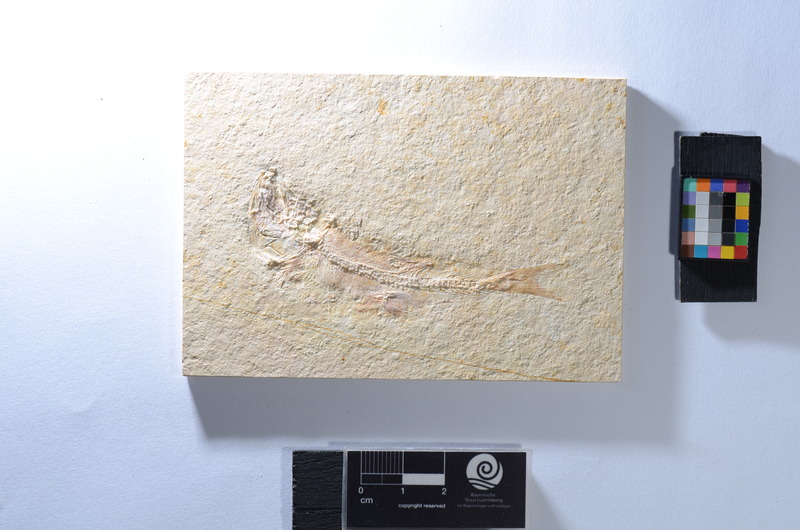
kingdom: Animalia
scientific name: Animalia
